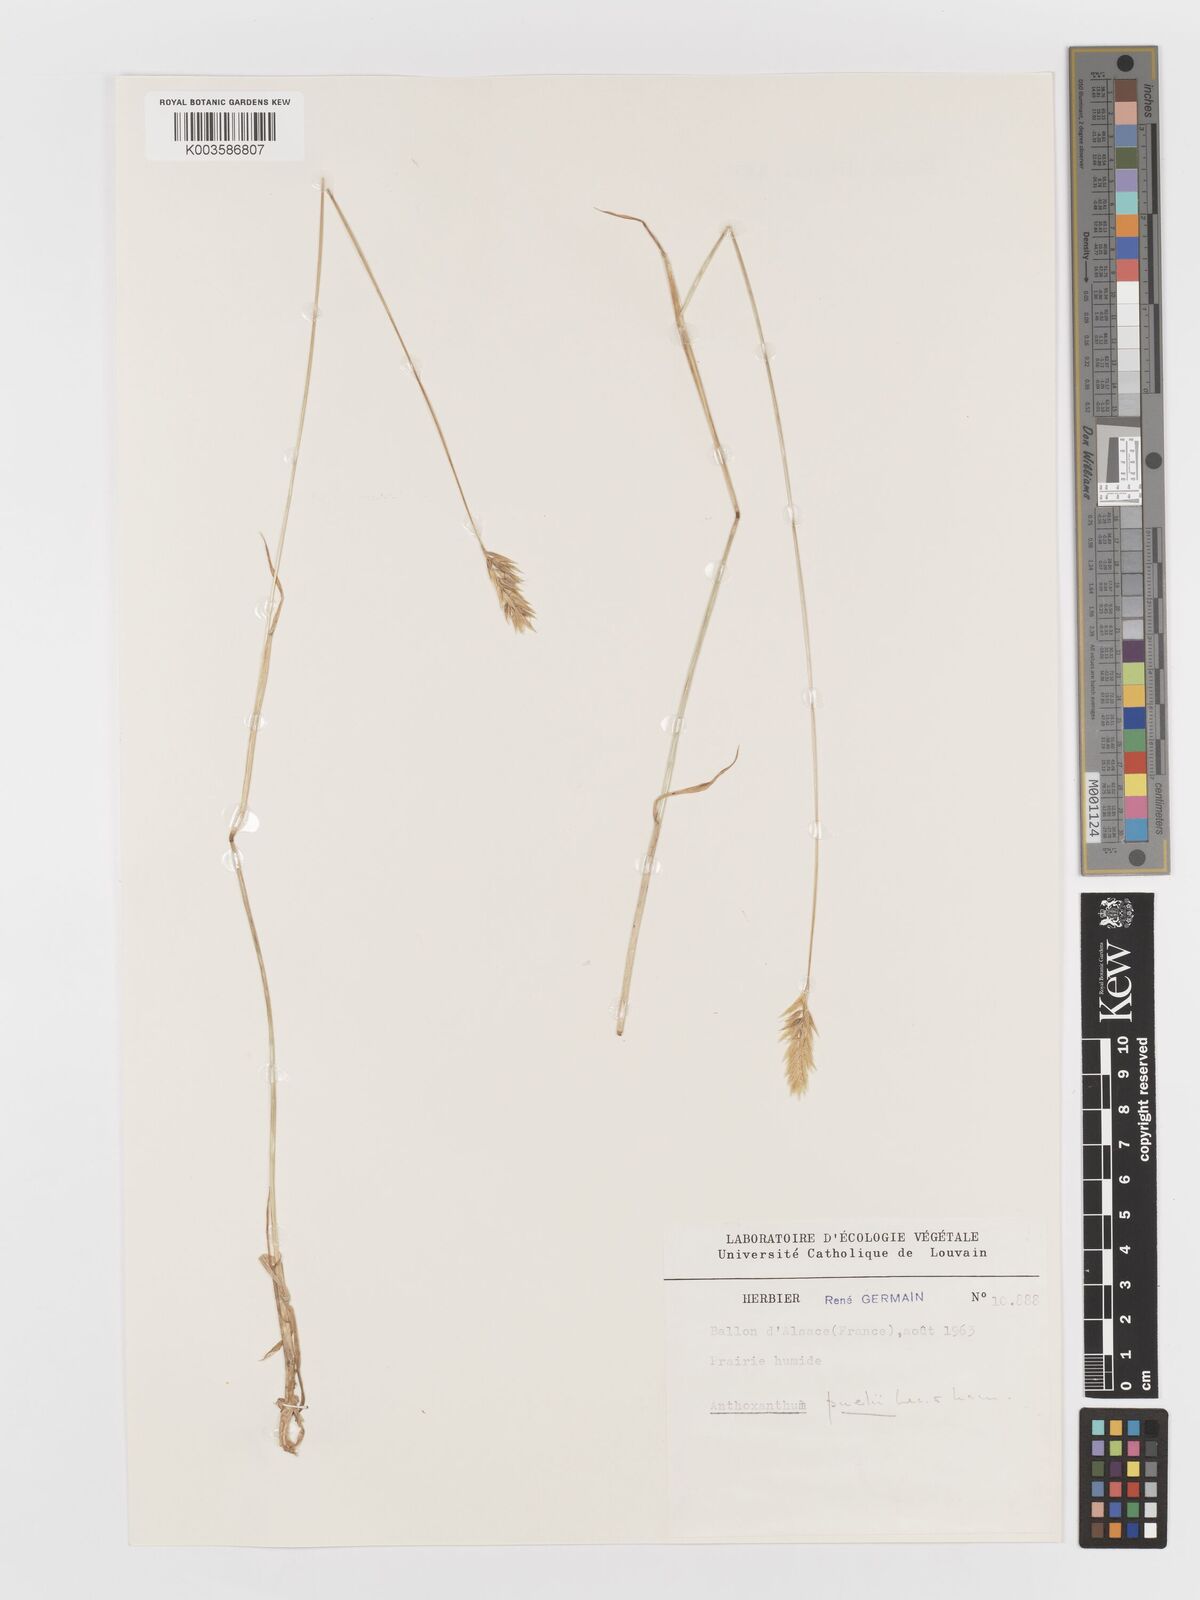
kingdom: Plantae
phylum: Tracheophyta
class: Liliopsida
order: Poales
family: Poaceae
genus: Anthoxanthum
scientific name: Anthoxanthum
